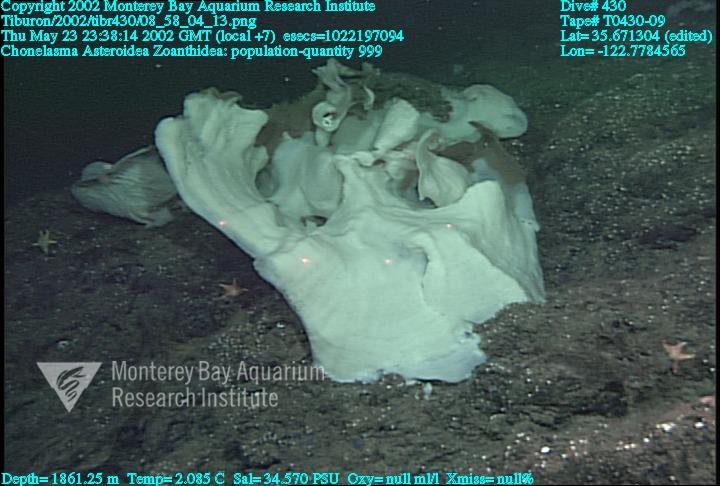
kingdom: Animalia
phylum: Porifera
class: Hexactinellida
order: Sceptrulophora
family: Euretidae
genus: Chonelasma
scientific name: Chonelasma
